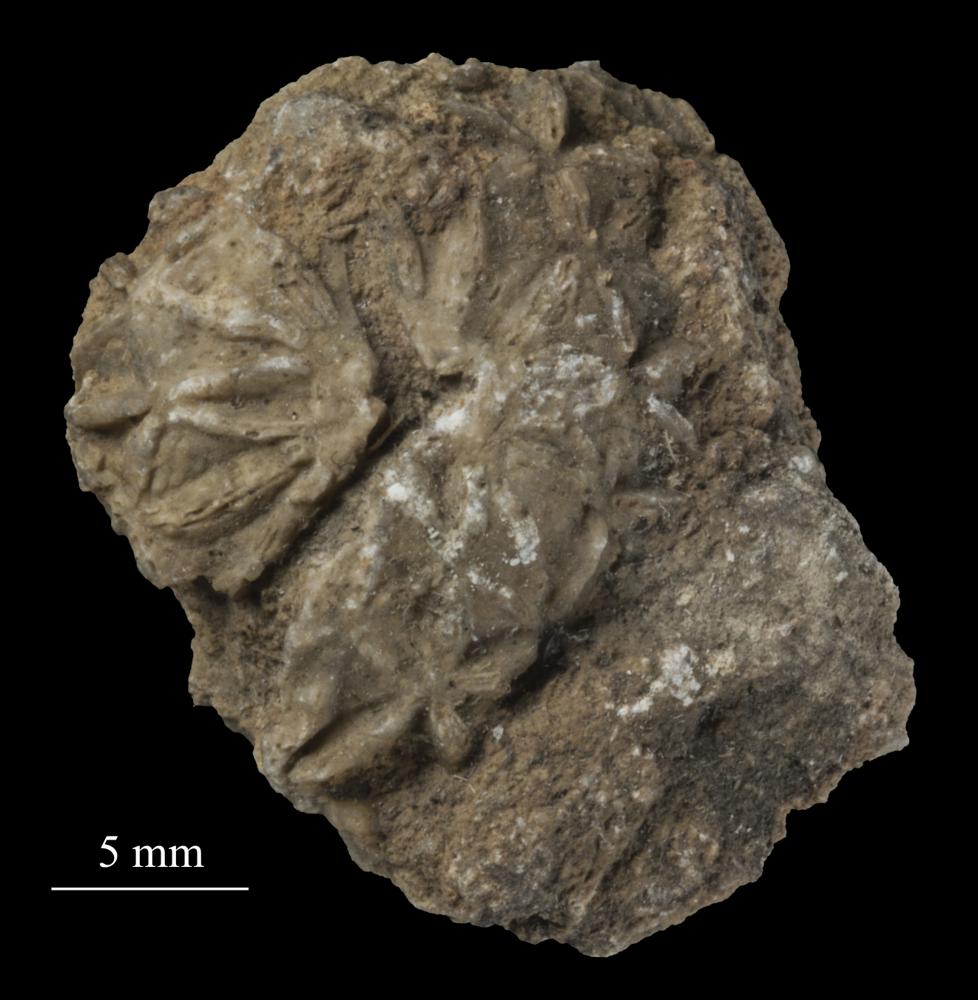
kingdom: Animalia
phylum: Echinodermata
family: Caryocystitidae
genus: Heliocrinites
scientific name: Heliocrinites Echinosphaerites balticus
